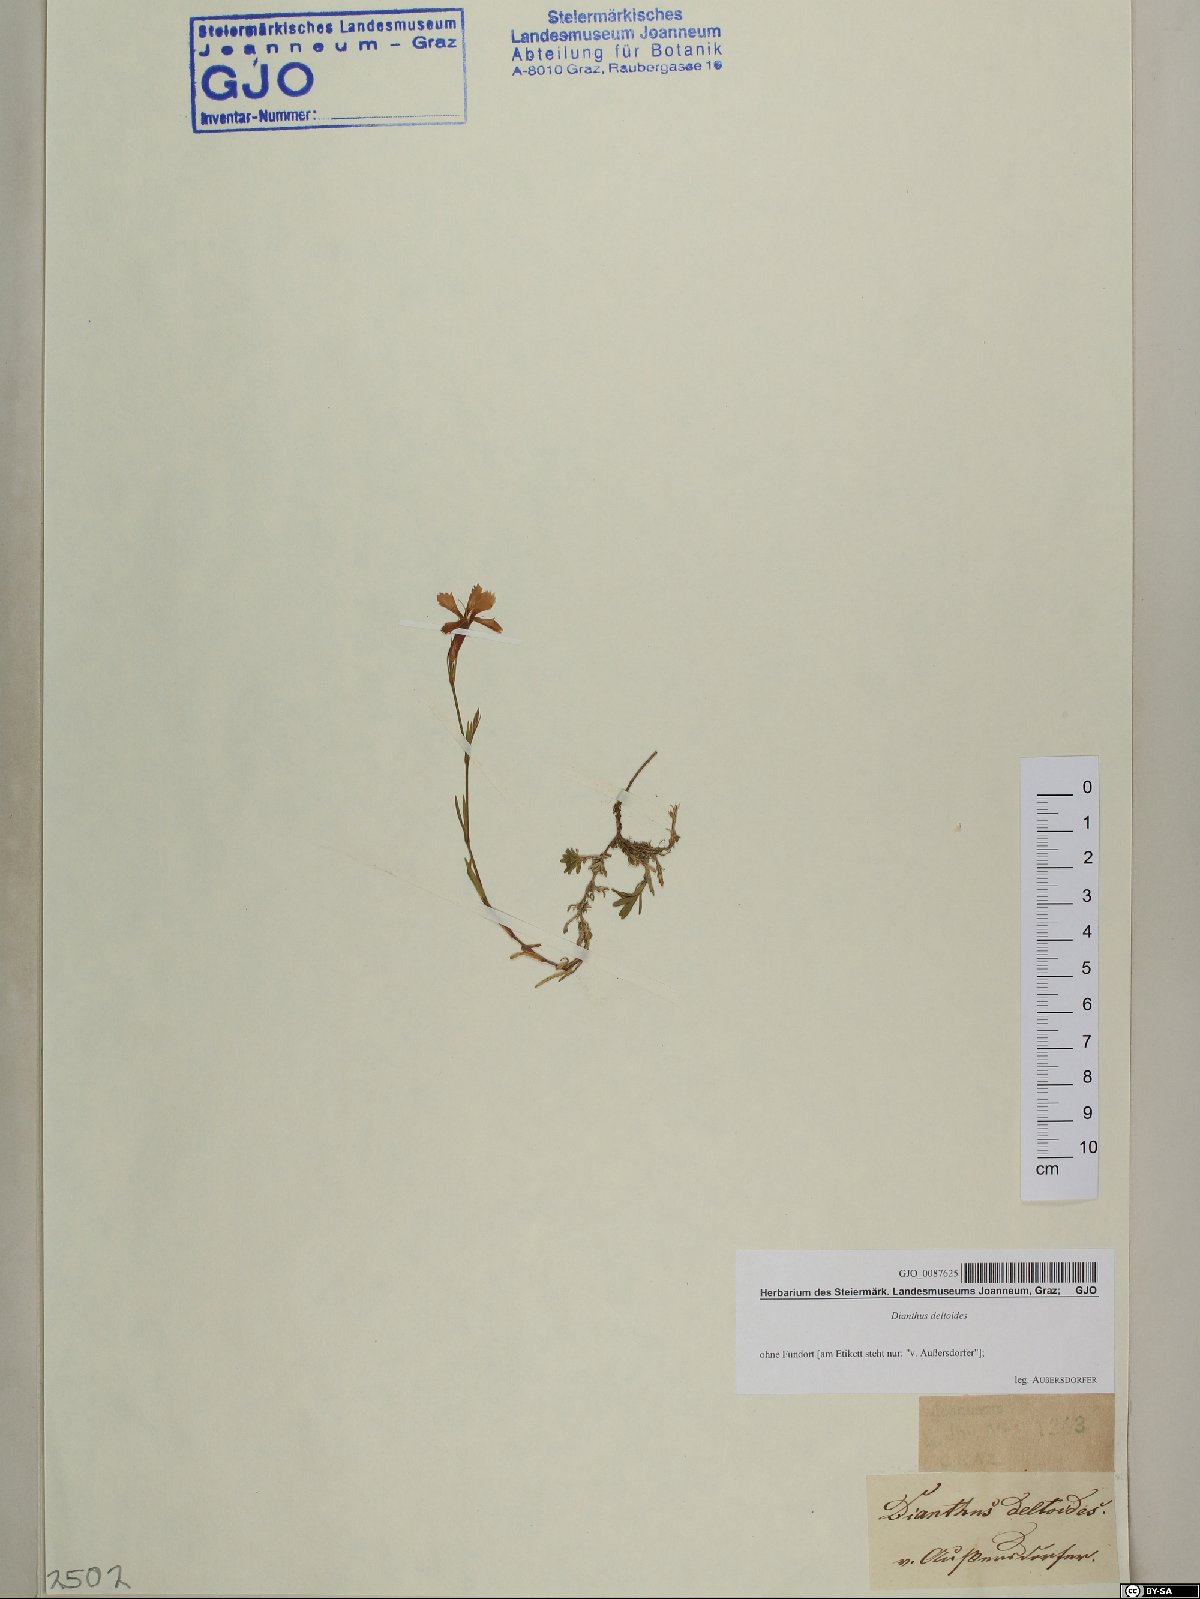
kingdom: Plantae
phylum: Tracheophyta
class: Magnoliopsida
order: Caryophyllales
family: Caryophyllaceae
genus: Dianthus
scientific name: Dianthus deltoides
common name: Maiden pink
